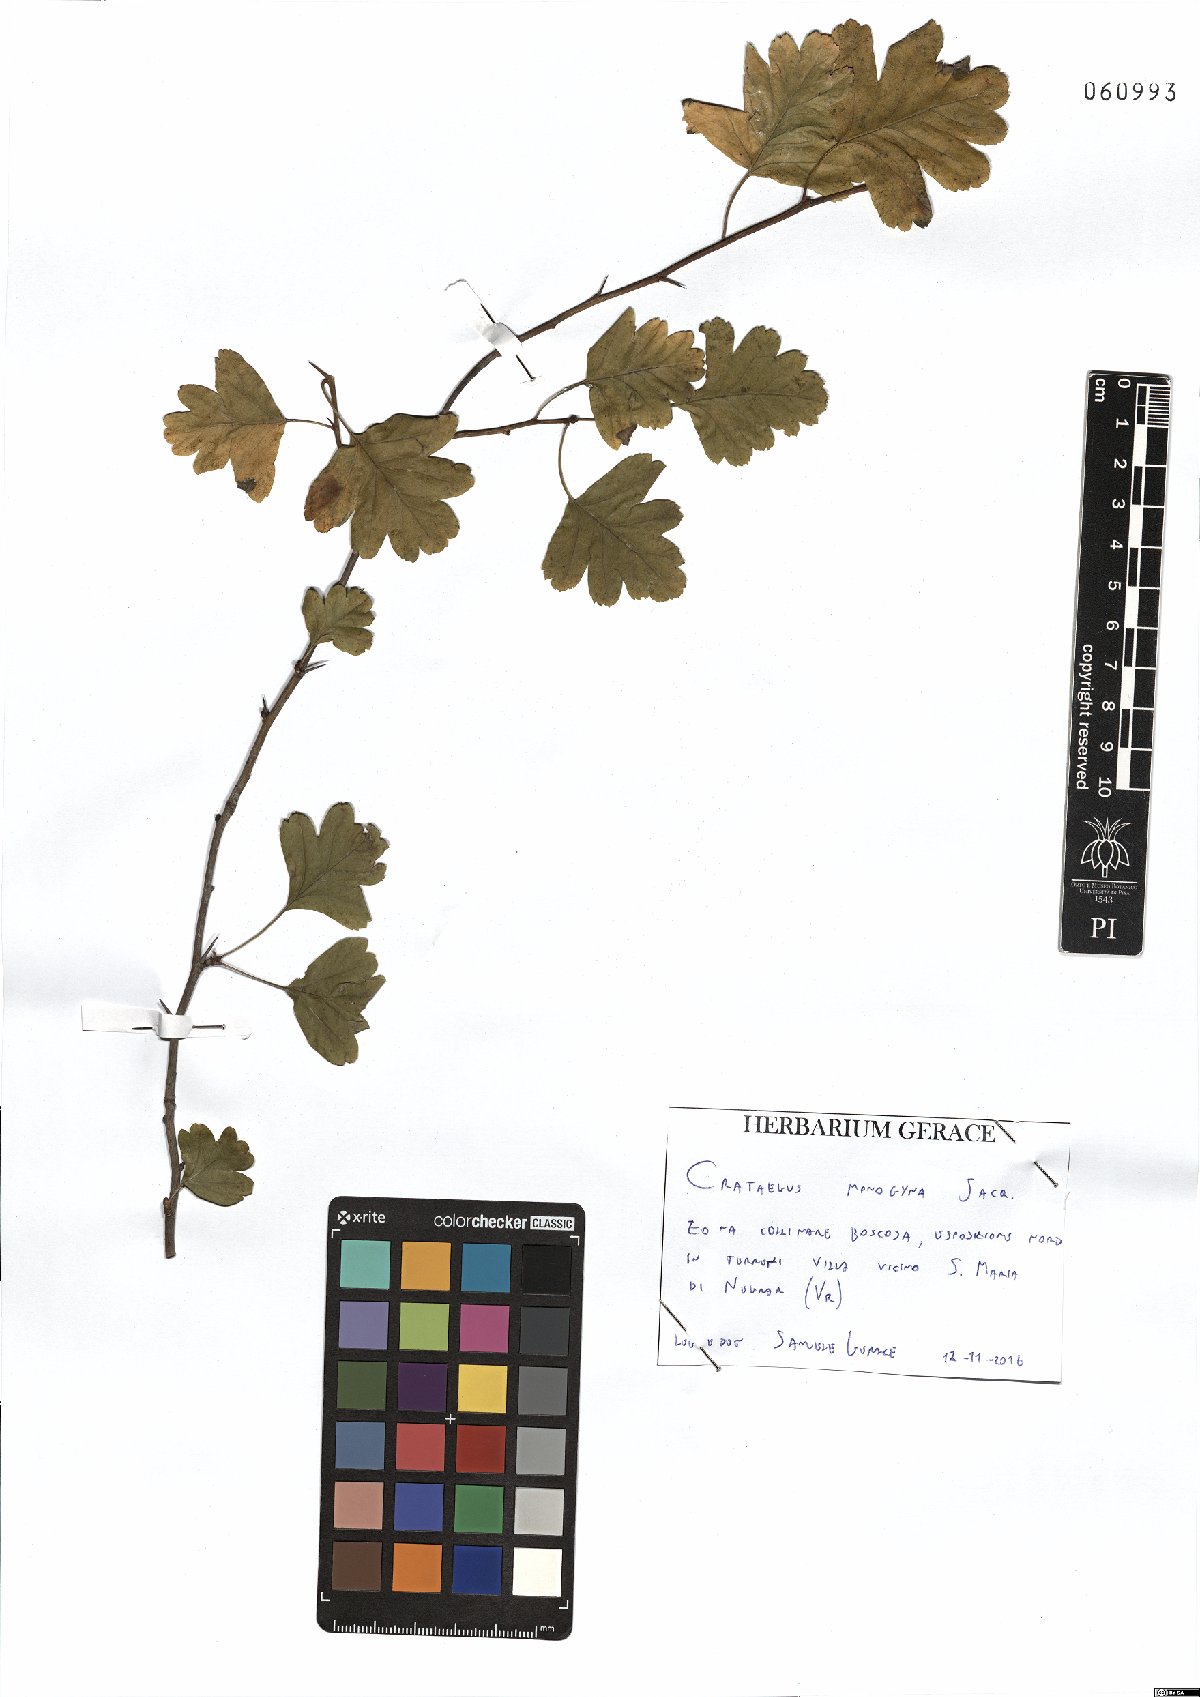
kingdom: Plantae
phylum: Tracheophyta
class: Magnoliopsida
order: Rosales
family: Rosaceae
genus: Crataegus
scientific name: Crataegus monogyna
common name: Hawthorn
